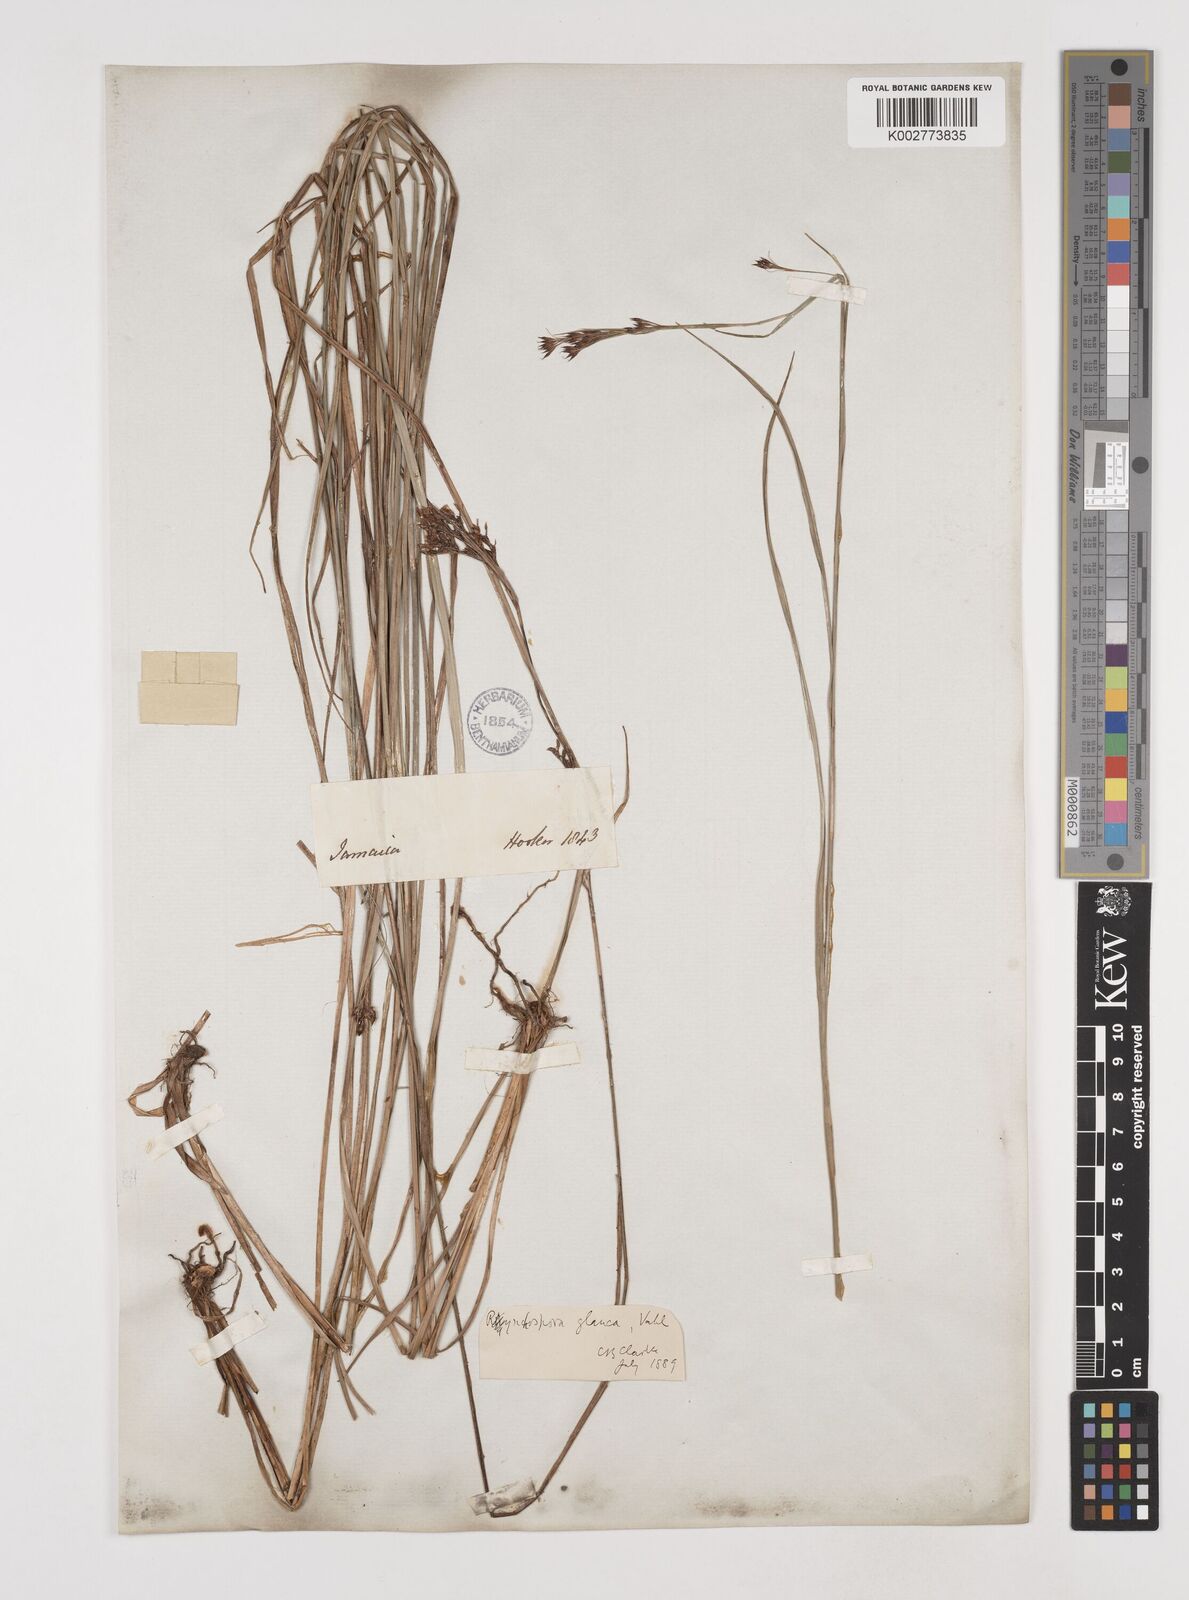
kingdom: Plantae
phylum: Tracheophyta
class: Liliopsida
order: Poales
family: Cyperaceae
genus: Rhynchospora
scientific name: Rhynchospora rugosa
